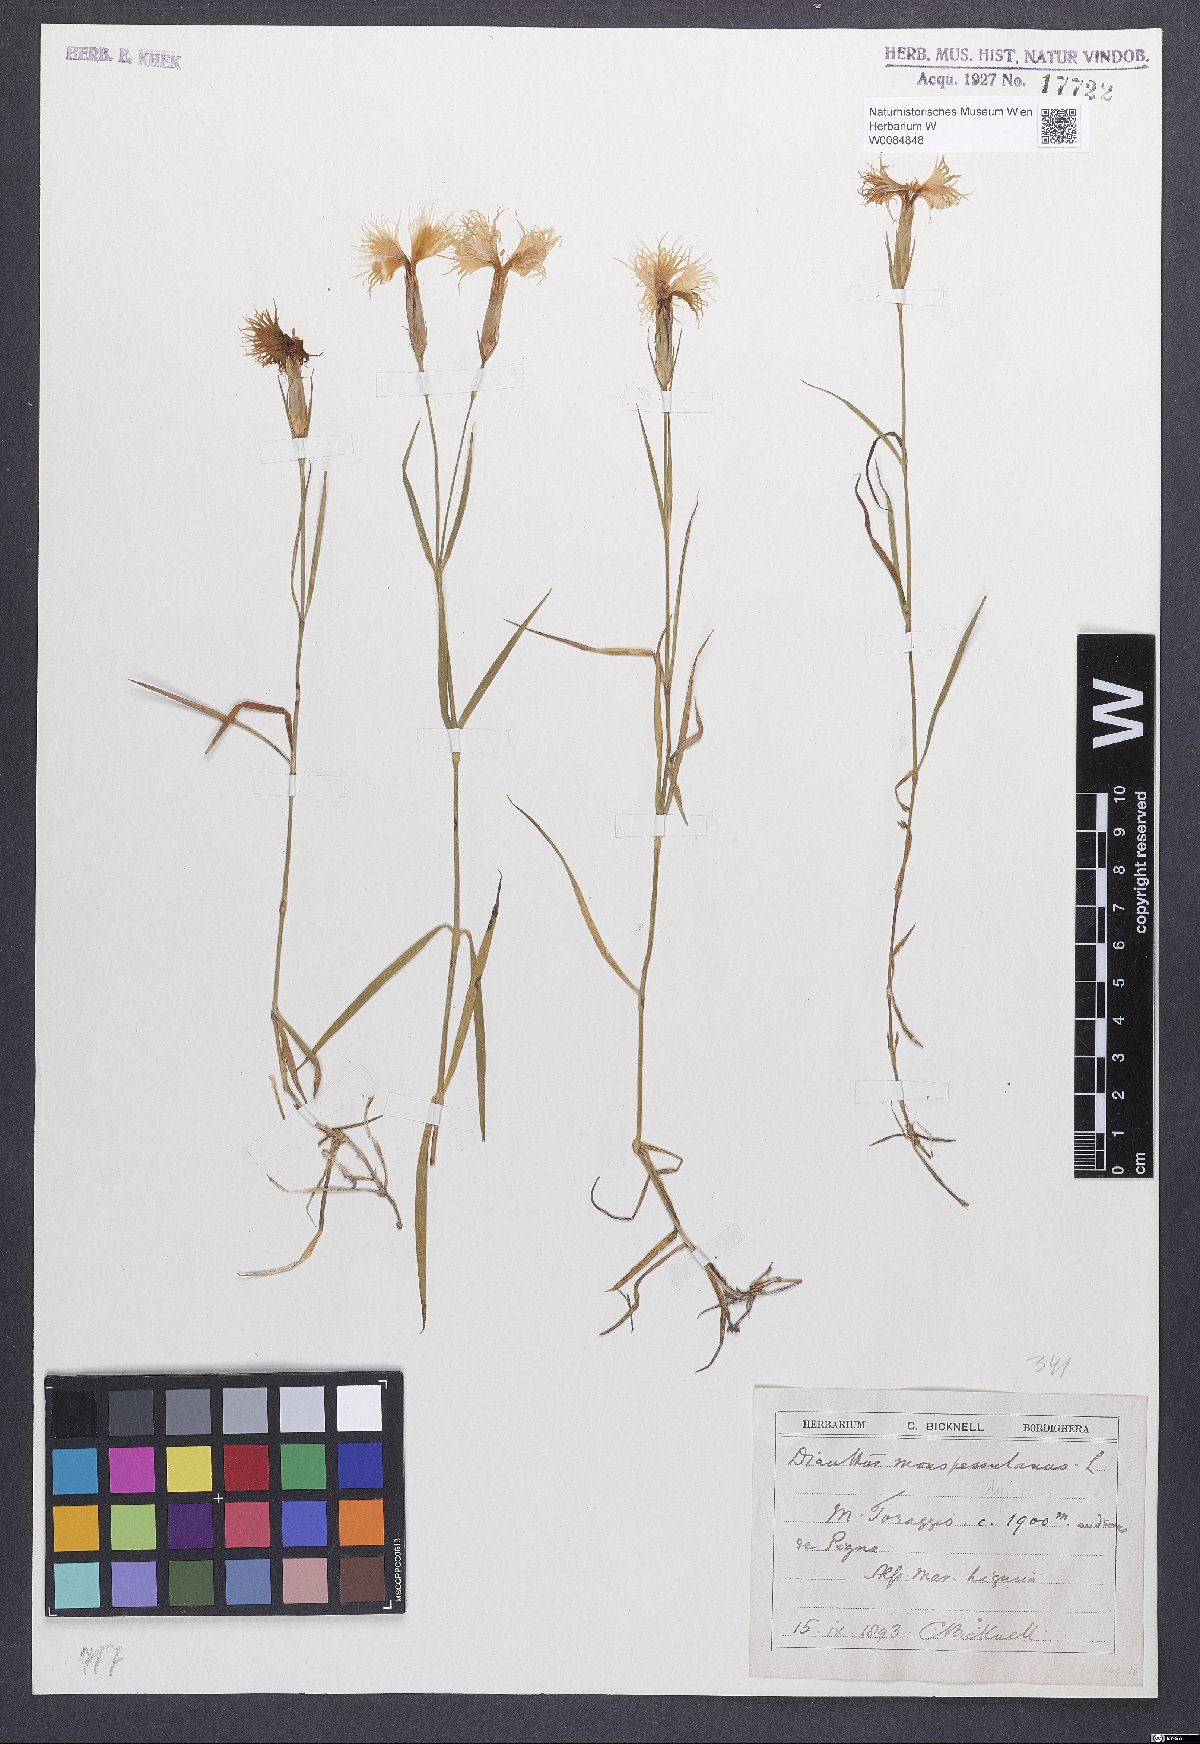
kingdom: Plantae
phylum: Tracheophyta
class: Magnoliopsida
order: Caryophyllales
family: Caryophyllaceae
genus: Dianthus
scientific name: Dianthus hyssopifolius
